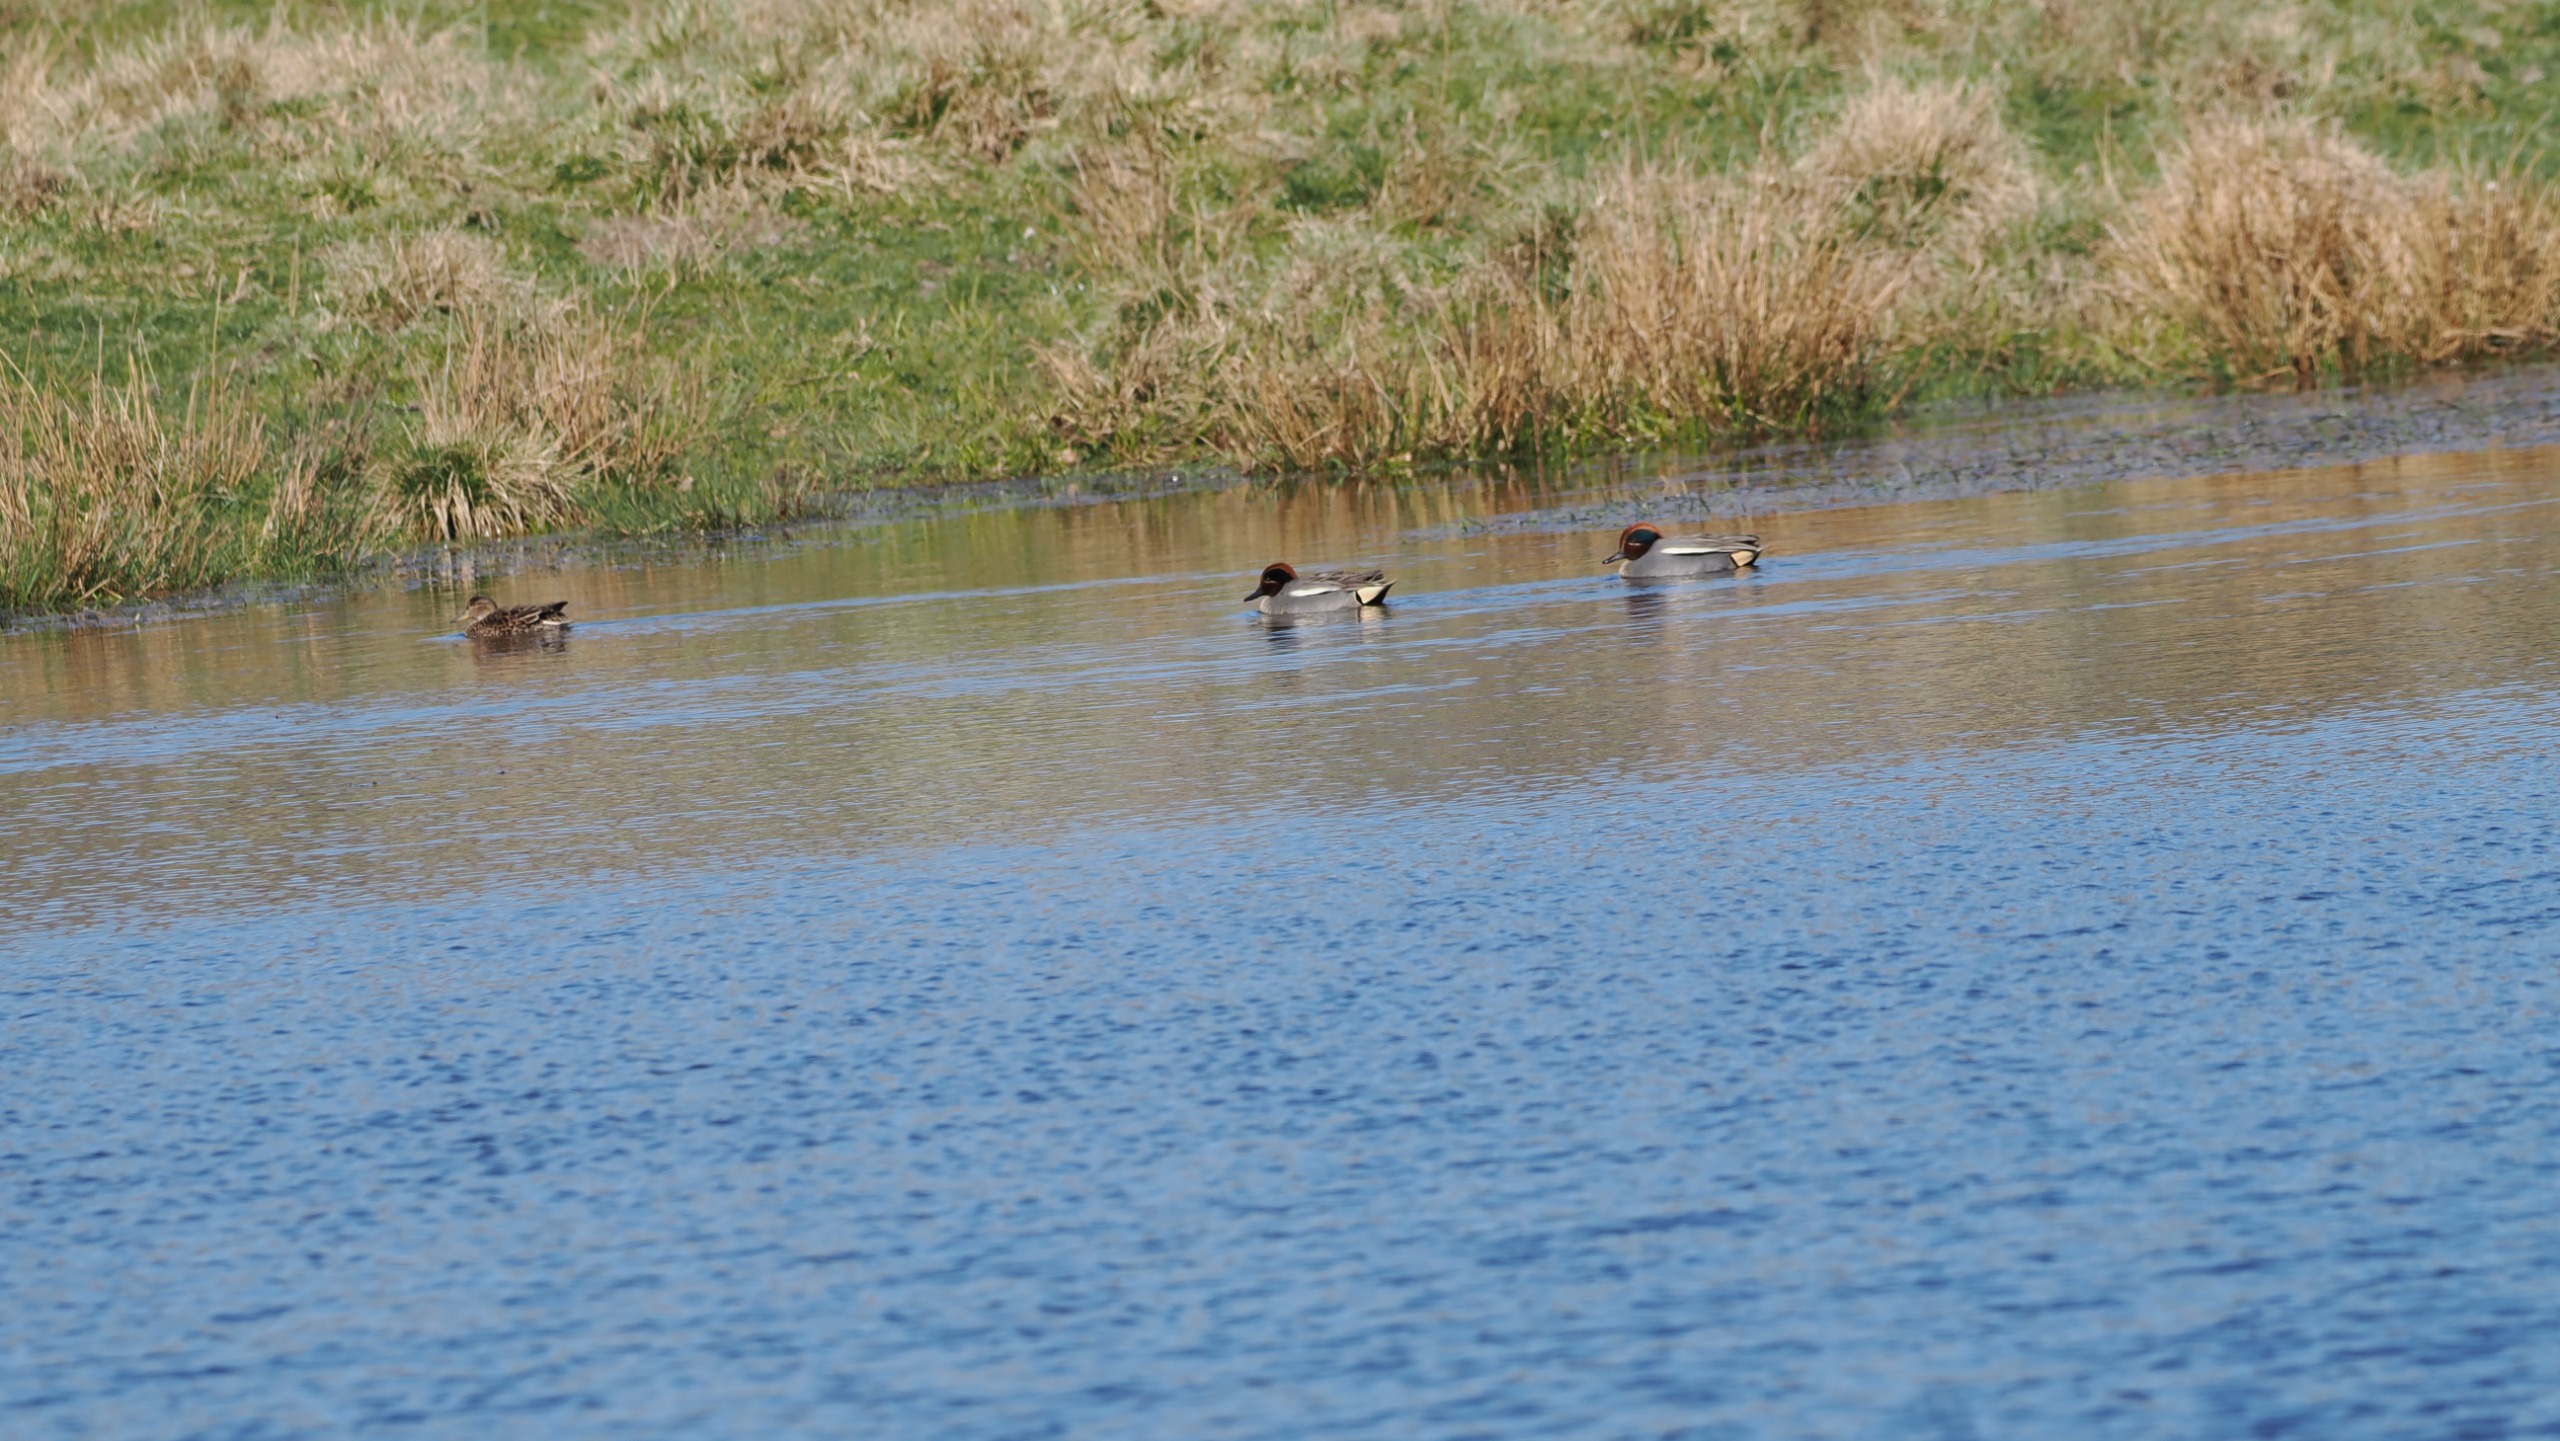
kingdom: Animalia
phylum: Chordata
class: Aves
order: Anseriformes
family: Anatidae
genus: Anas
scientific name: Anas crecca
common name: Krikand
